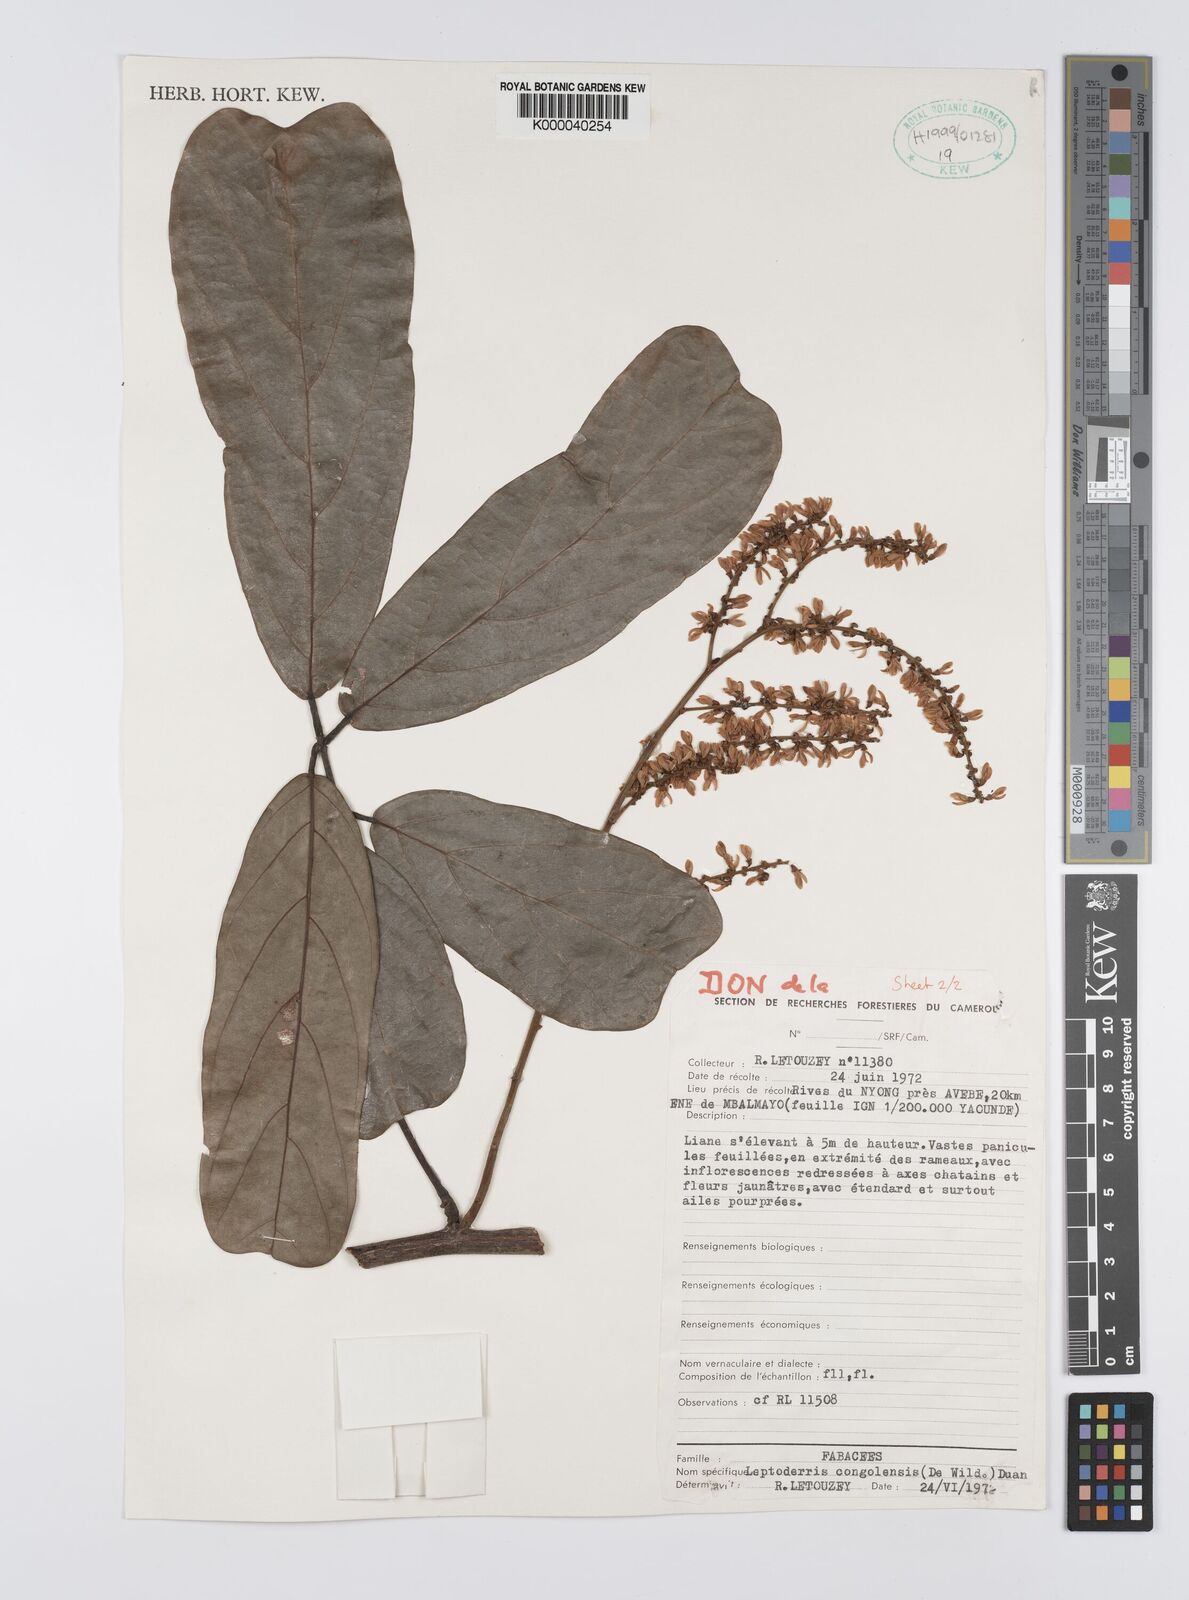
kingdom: Plantae
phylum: Tracheophyta
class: Magnoliopsida
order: Fabales
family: Fabaceae
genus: Leptoderris
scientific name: Leptoderris congolensis
